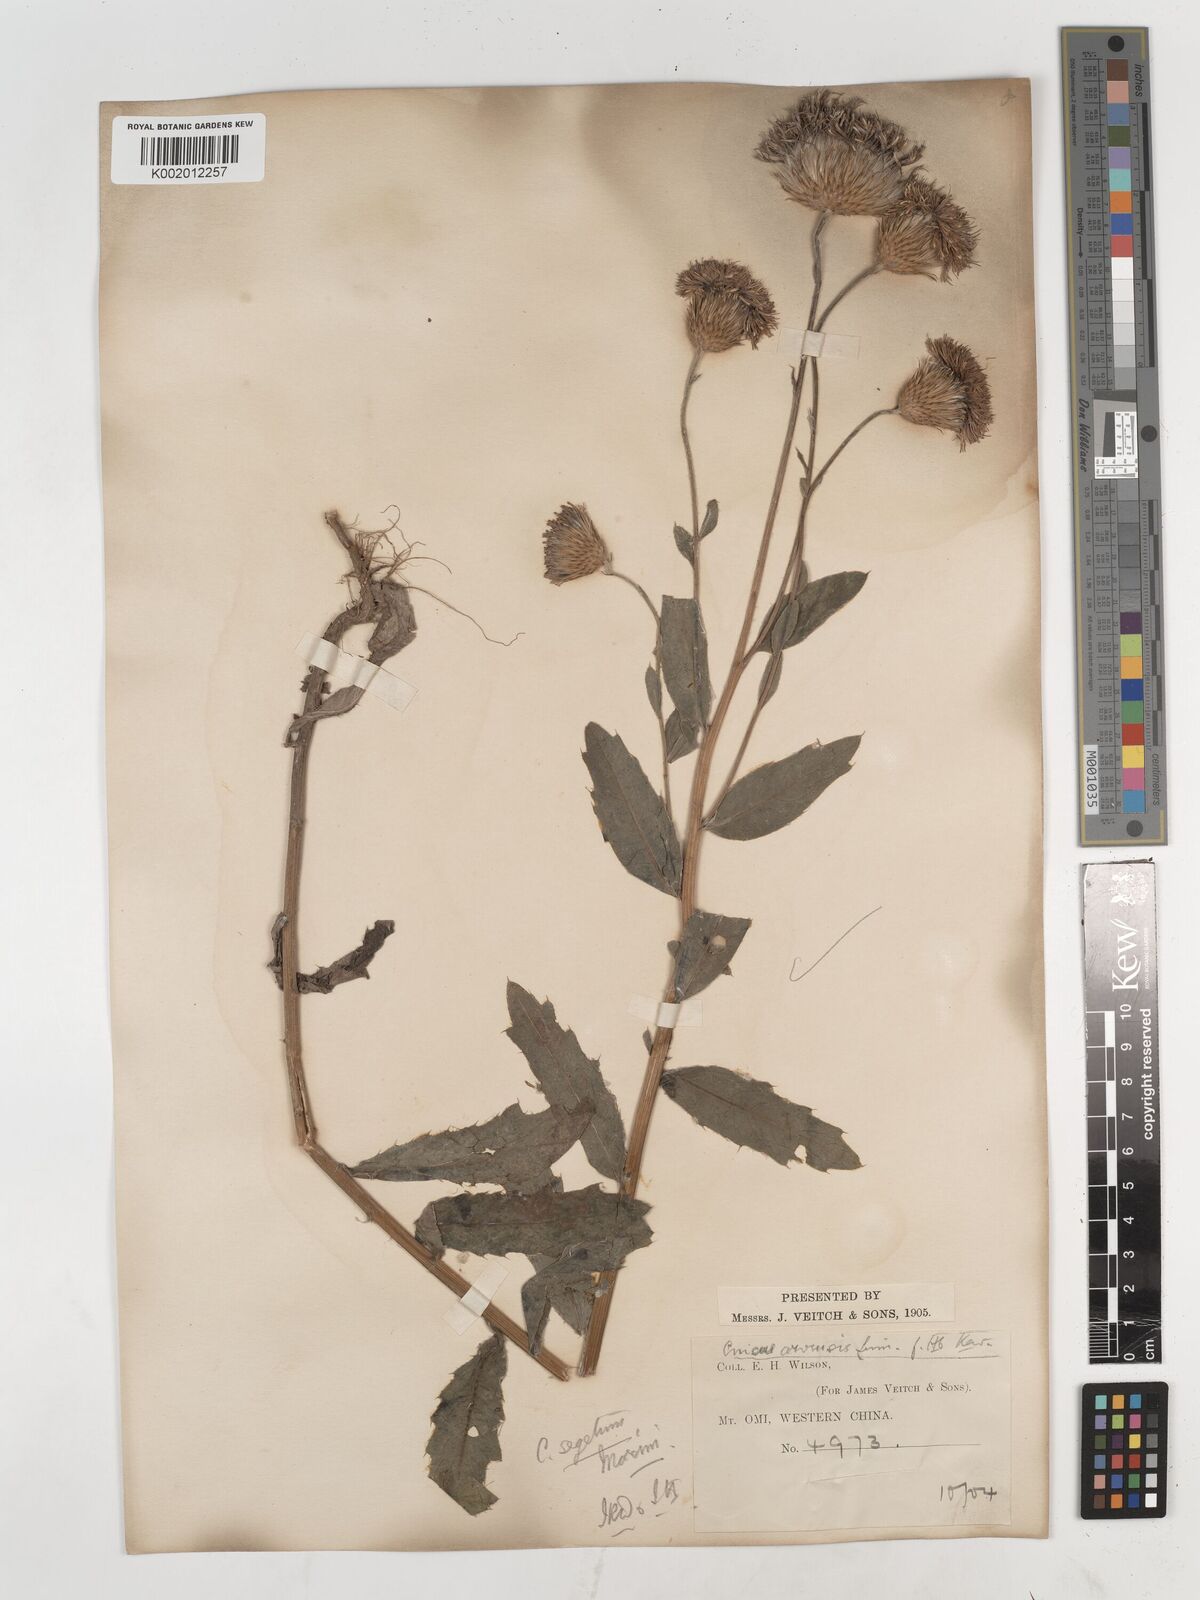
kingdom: Plantae
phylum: Tracheophyta
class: Magnoliopsida
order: Asterales
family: Asteraceae
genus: Cirsium
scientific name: Cirsium arvense
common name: Creeping thistle
